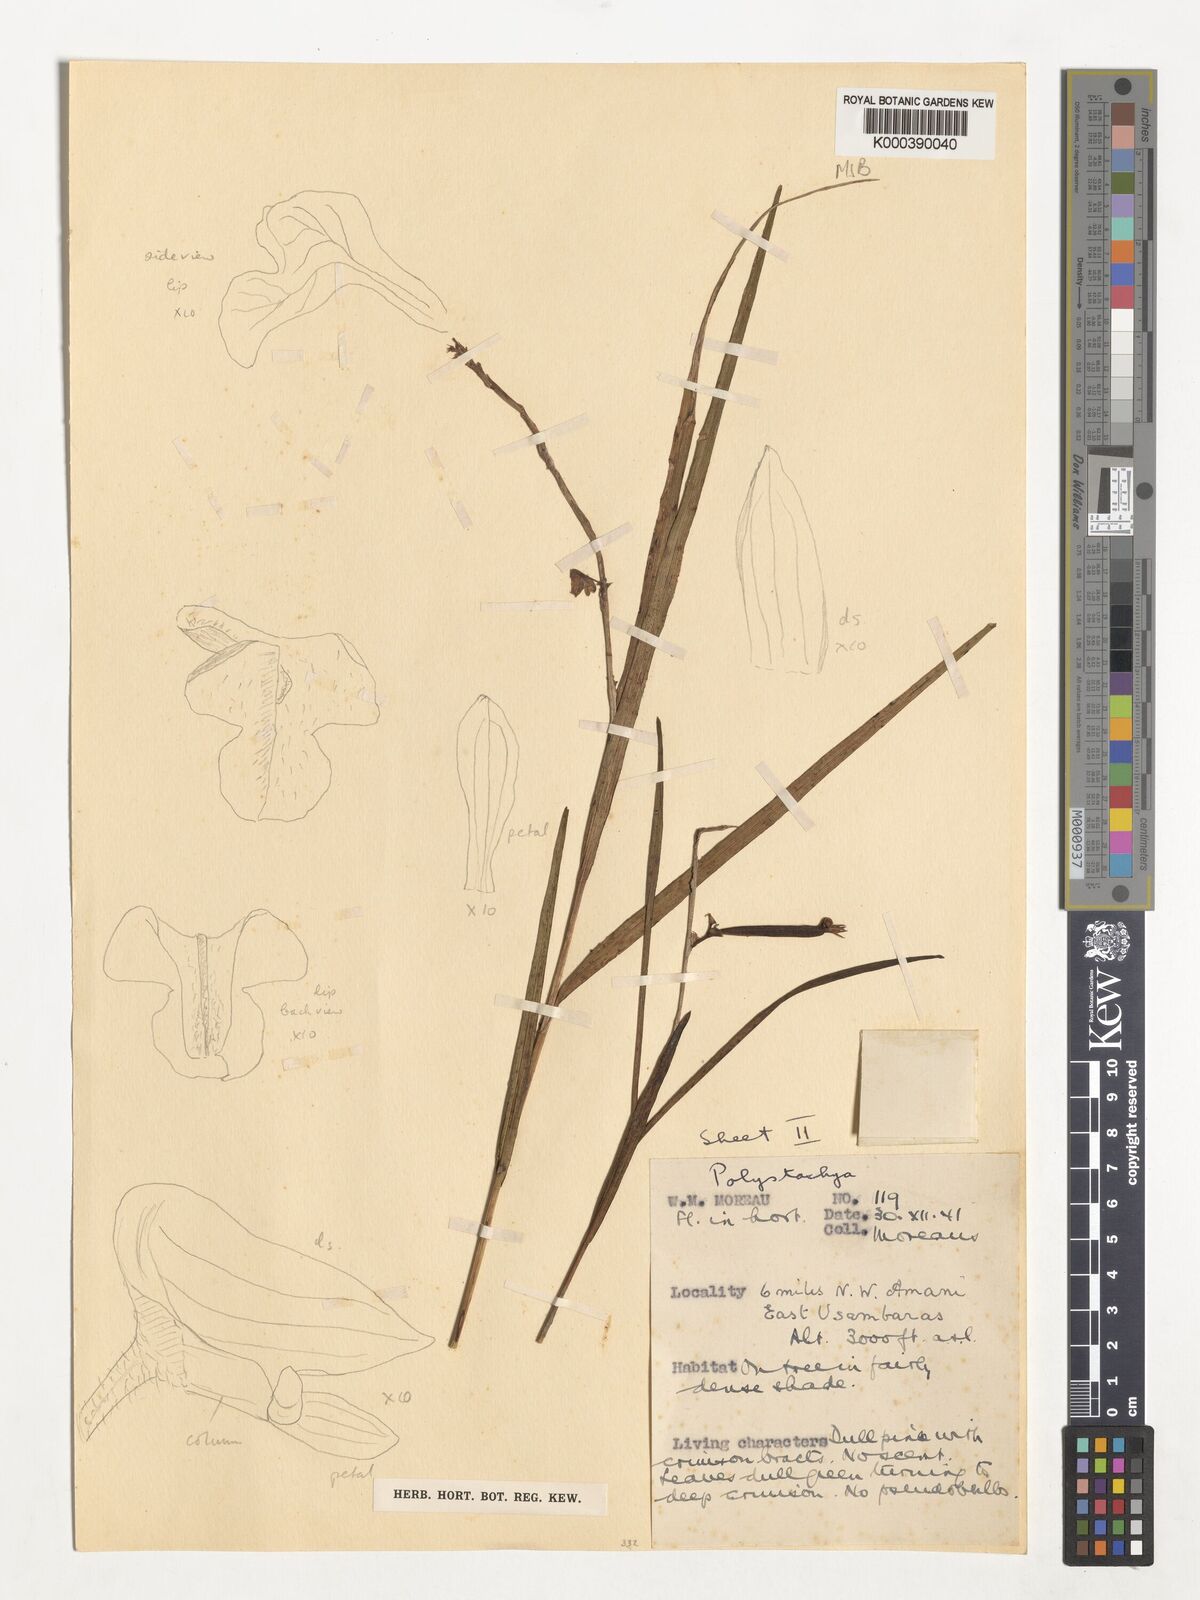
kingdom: Plantae
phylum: Tracheophyta
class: Liliopsida
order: Asparagales
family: Orchidaceae
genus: Polystachya
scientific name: Polystachya caudata
